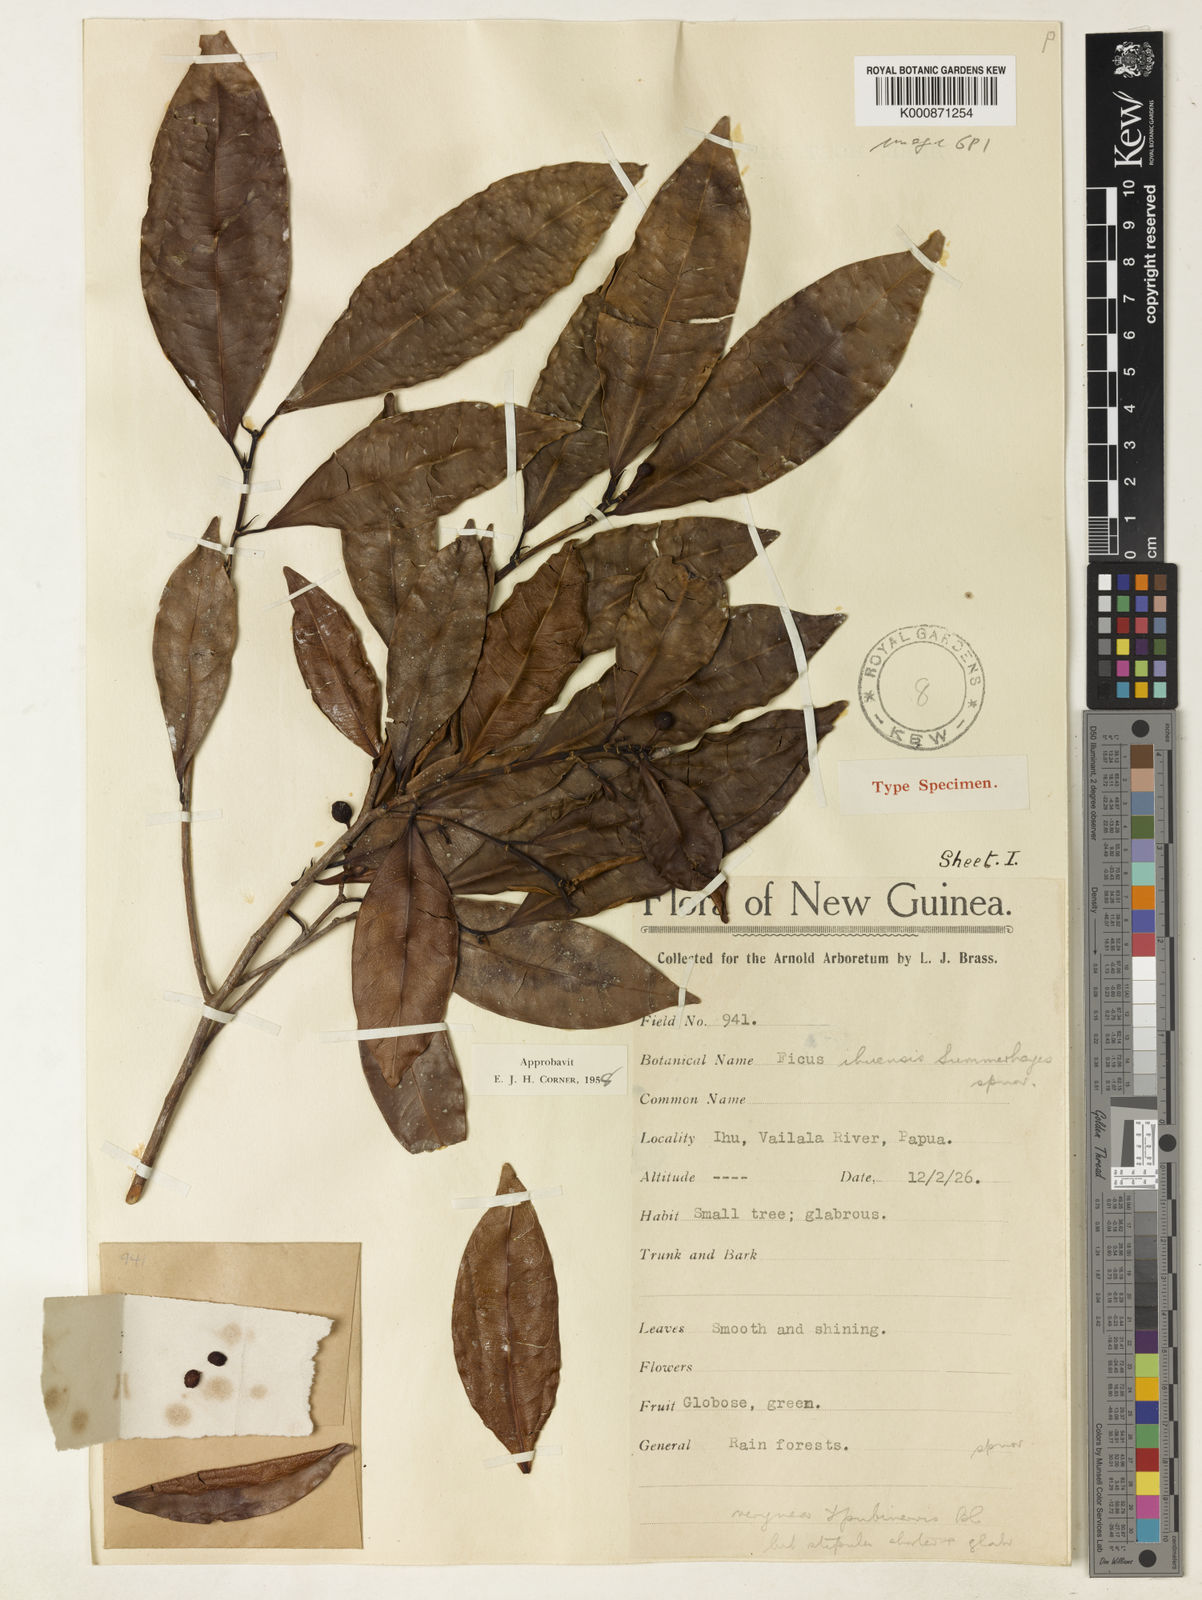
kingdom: Plantae
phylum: Tracheophyta
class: Magnoliopsida
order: Rosales
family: Moraceae
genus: Ficus
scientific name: Ficus ihuensis
